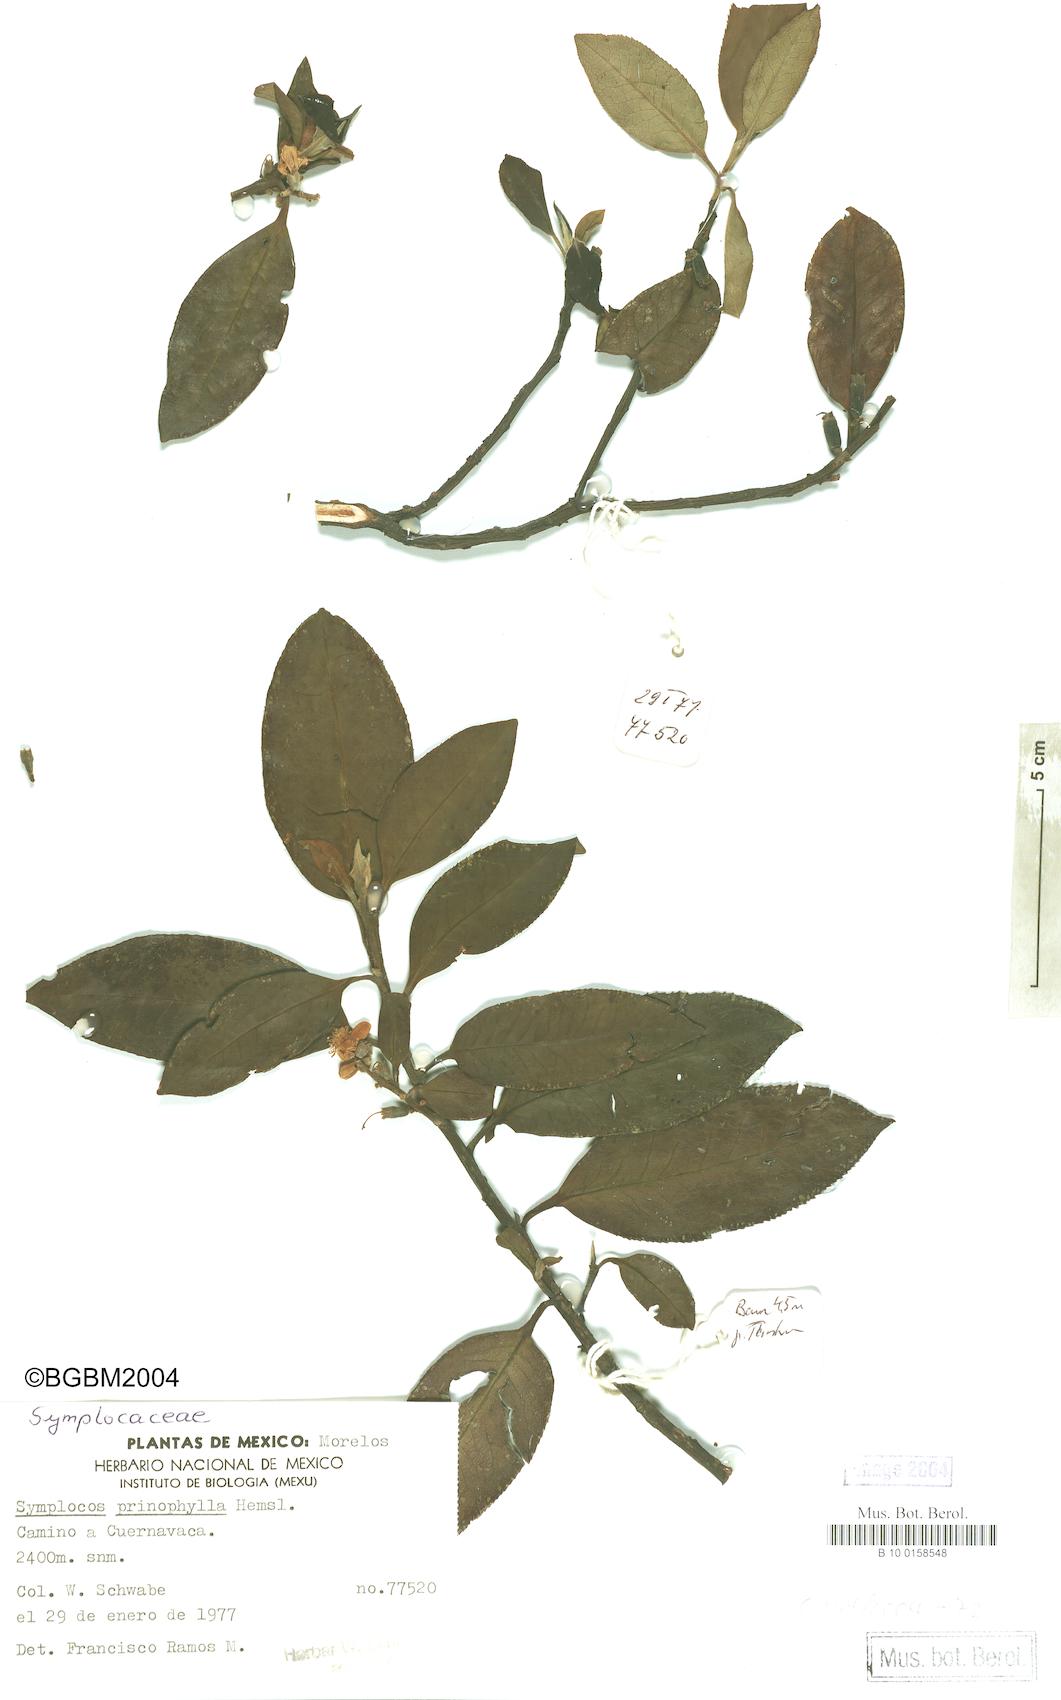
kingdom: Plantae
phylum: Tracheophyta
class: Magnoliopsida
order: Ericales
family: Symplocaceae
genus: Symplocos
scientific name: Symplocos citrea
